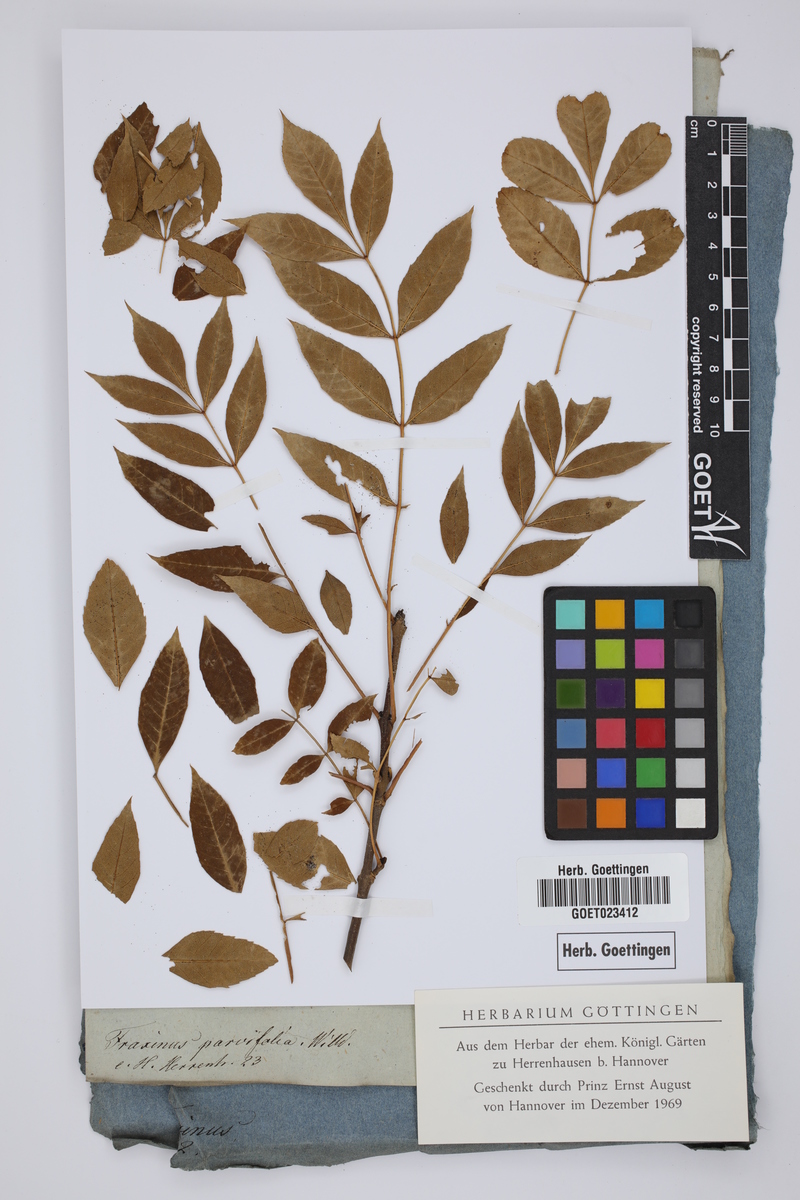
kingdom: Plantae
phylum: Tracheophyta
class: Magnoliopsida
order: Lamiales
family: Oleaceae
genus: Fraxinus
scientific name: Fraxinus excelsior
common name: European ash
